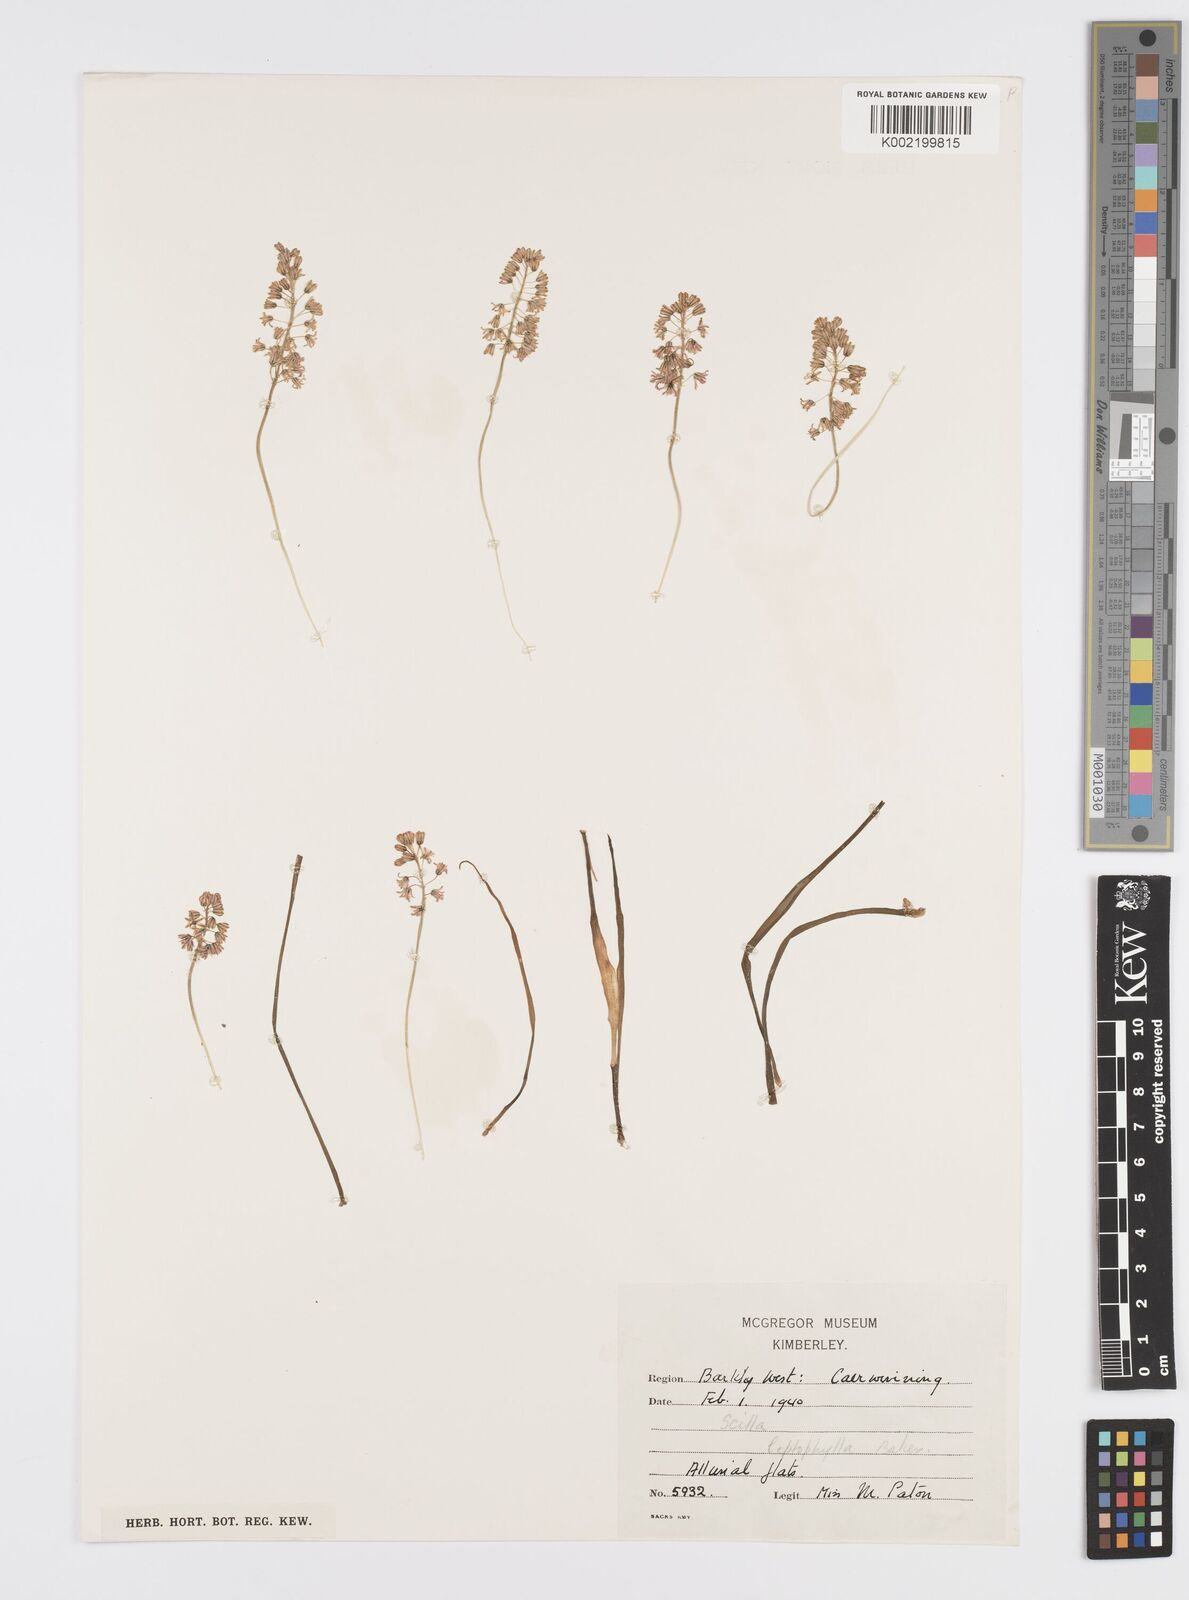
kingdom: Plantae
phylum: Tracheophyta
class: Liliopsida
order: Asparagales
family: Asparagaceae
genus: Ledebouria
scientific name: Ledebouria cooperi
